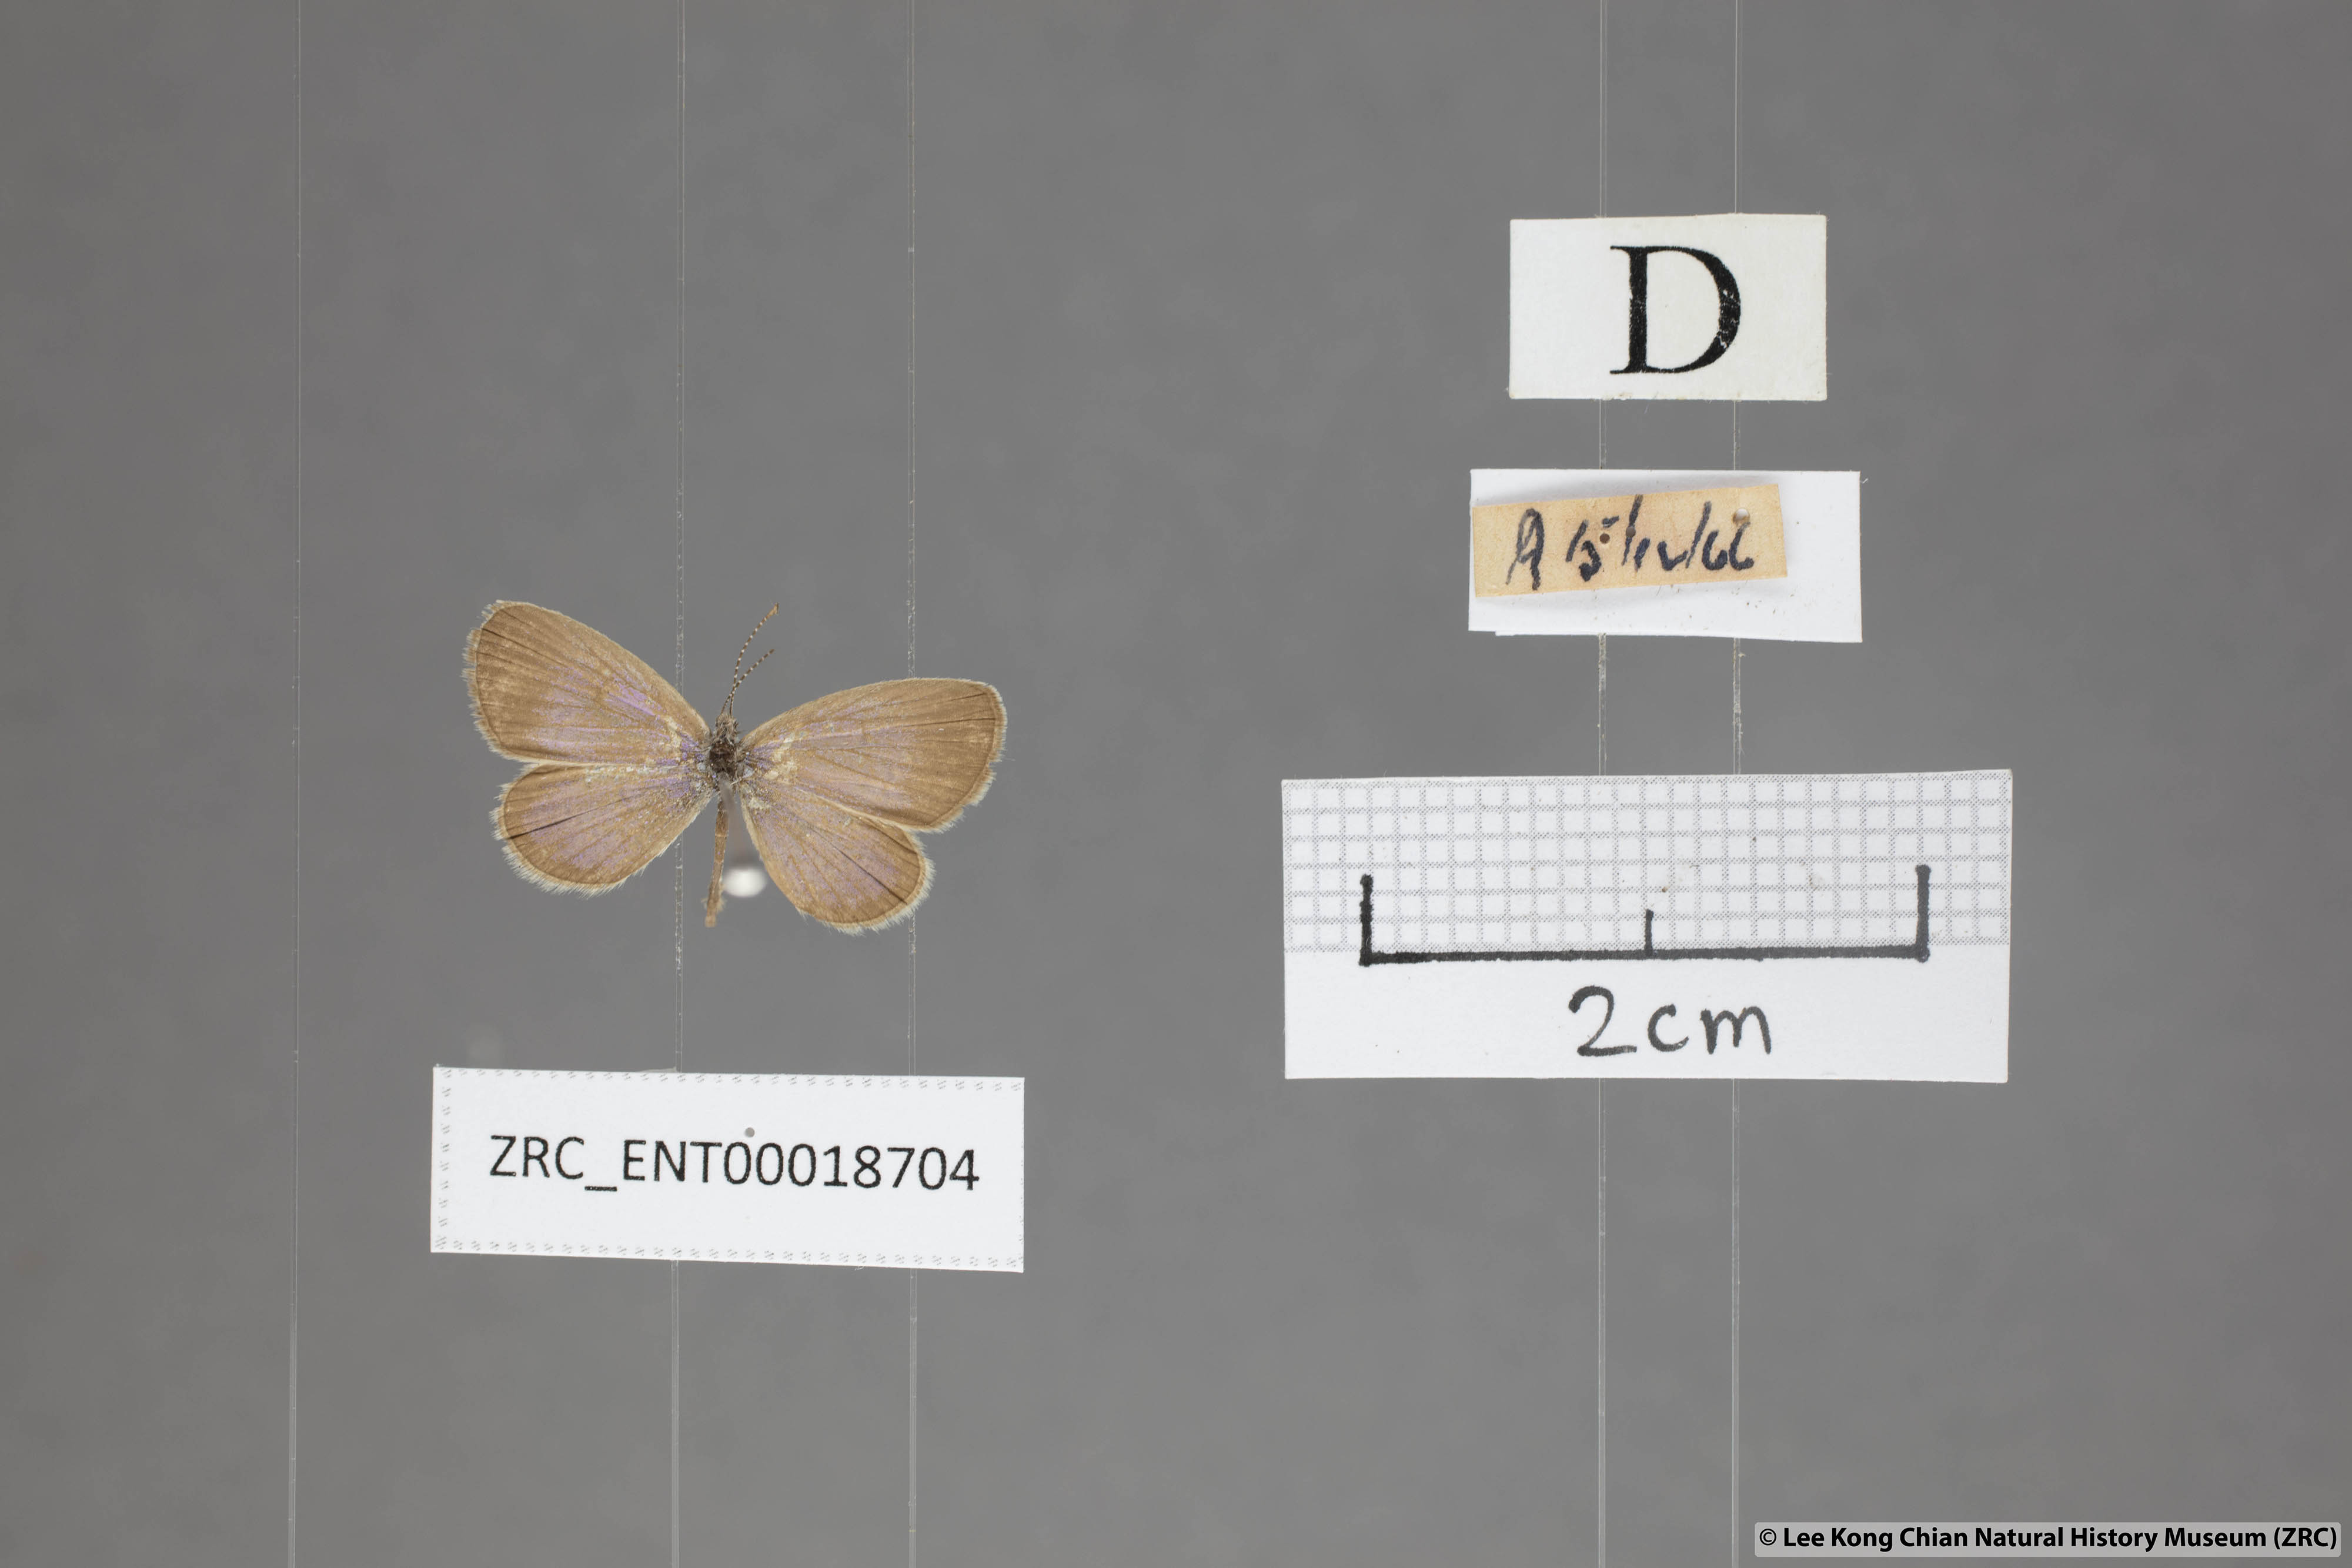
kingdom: Animalia
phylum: Arthropoda
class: Insecta
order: Lepidoptera
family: Lycaenidae
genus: Zizula
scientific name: Zizula hylax
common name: Gaika blue
